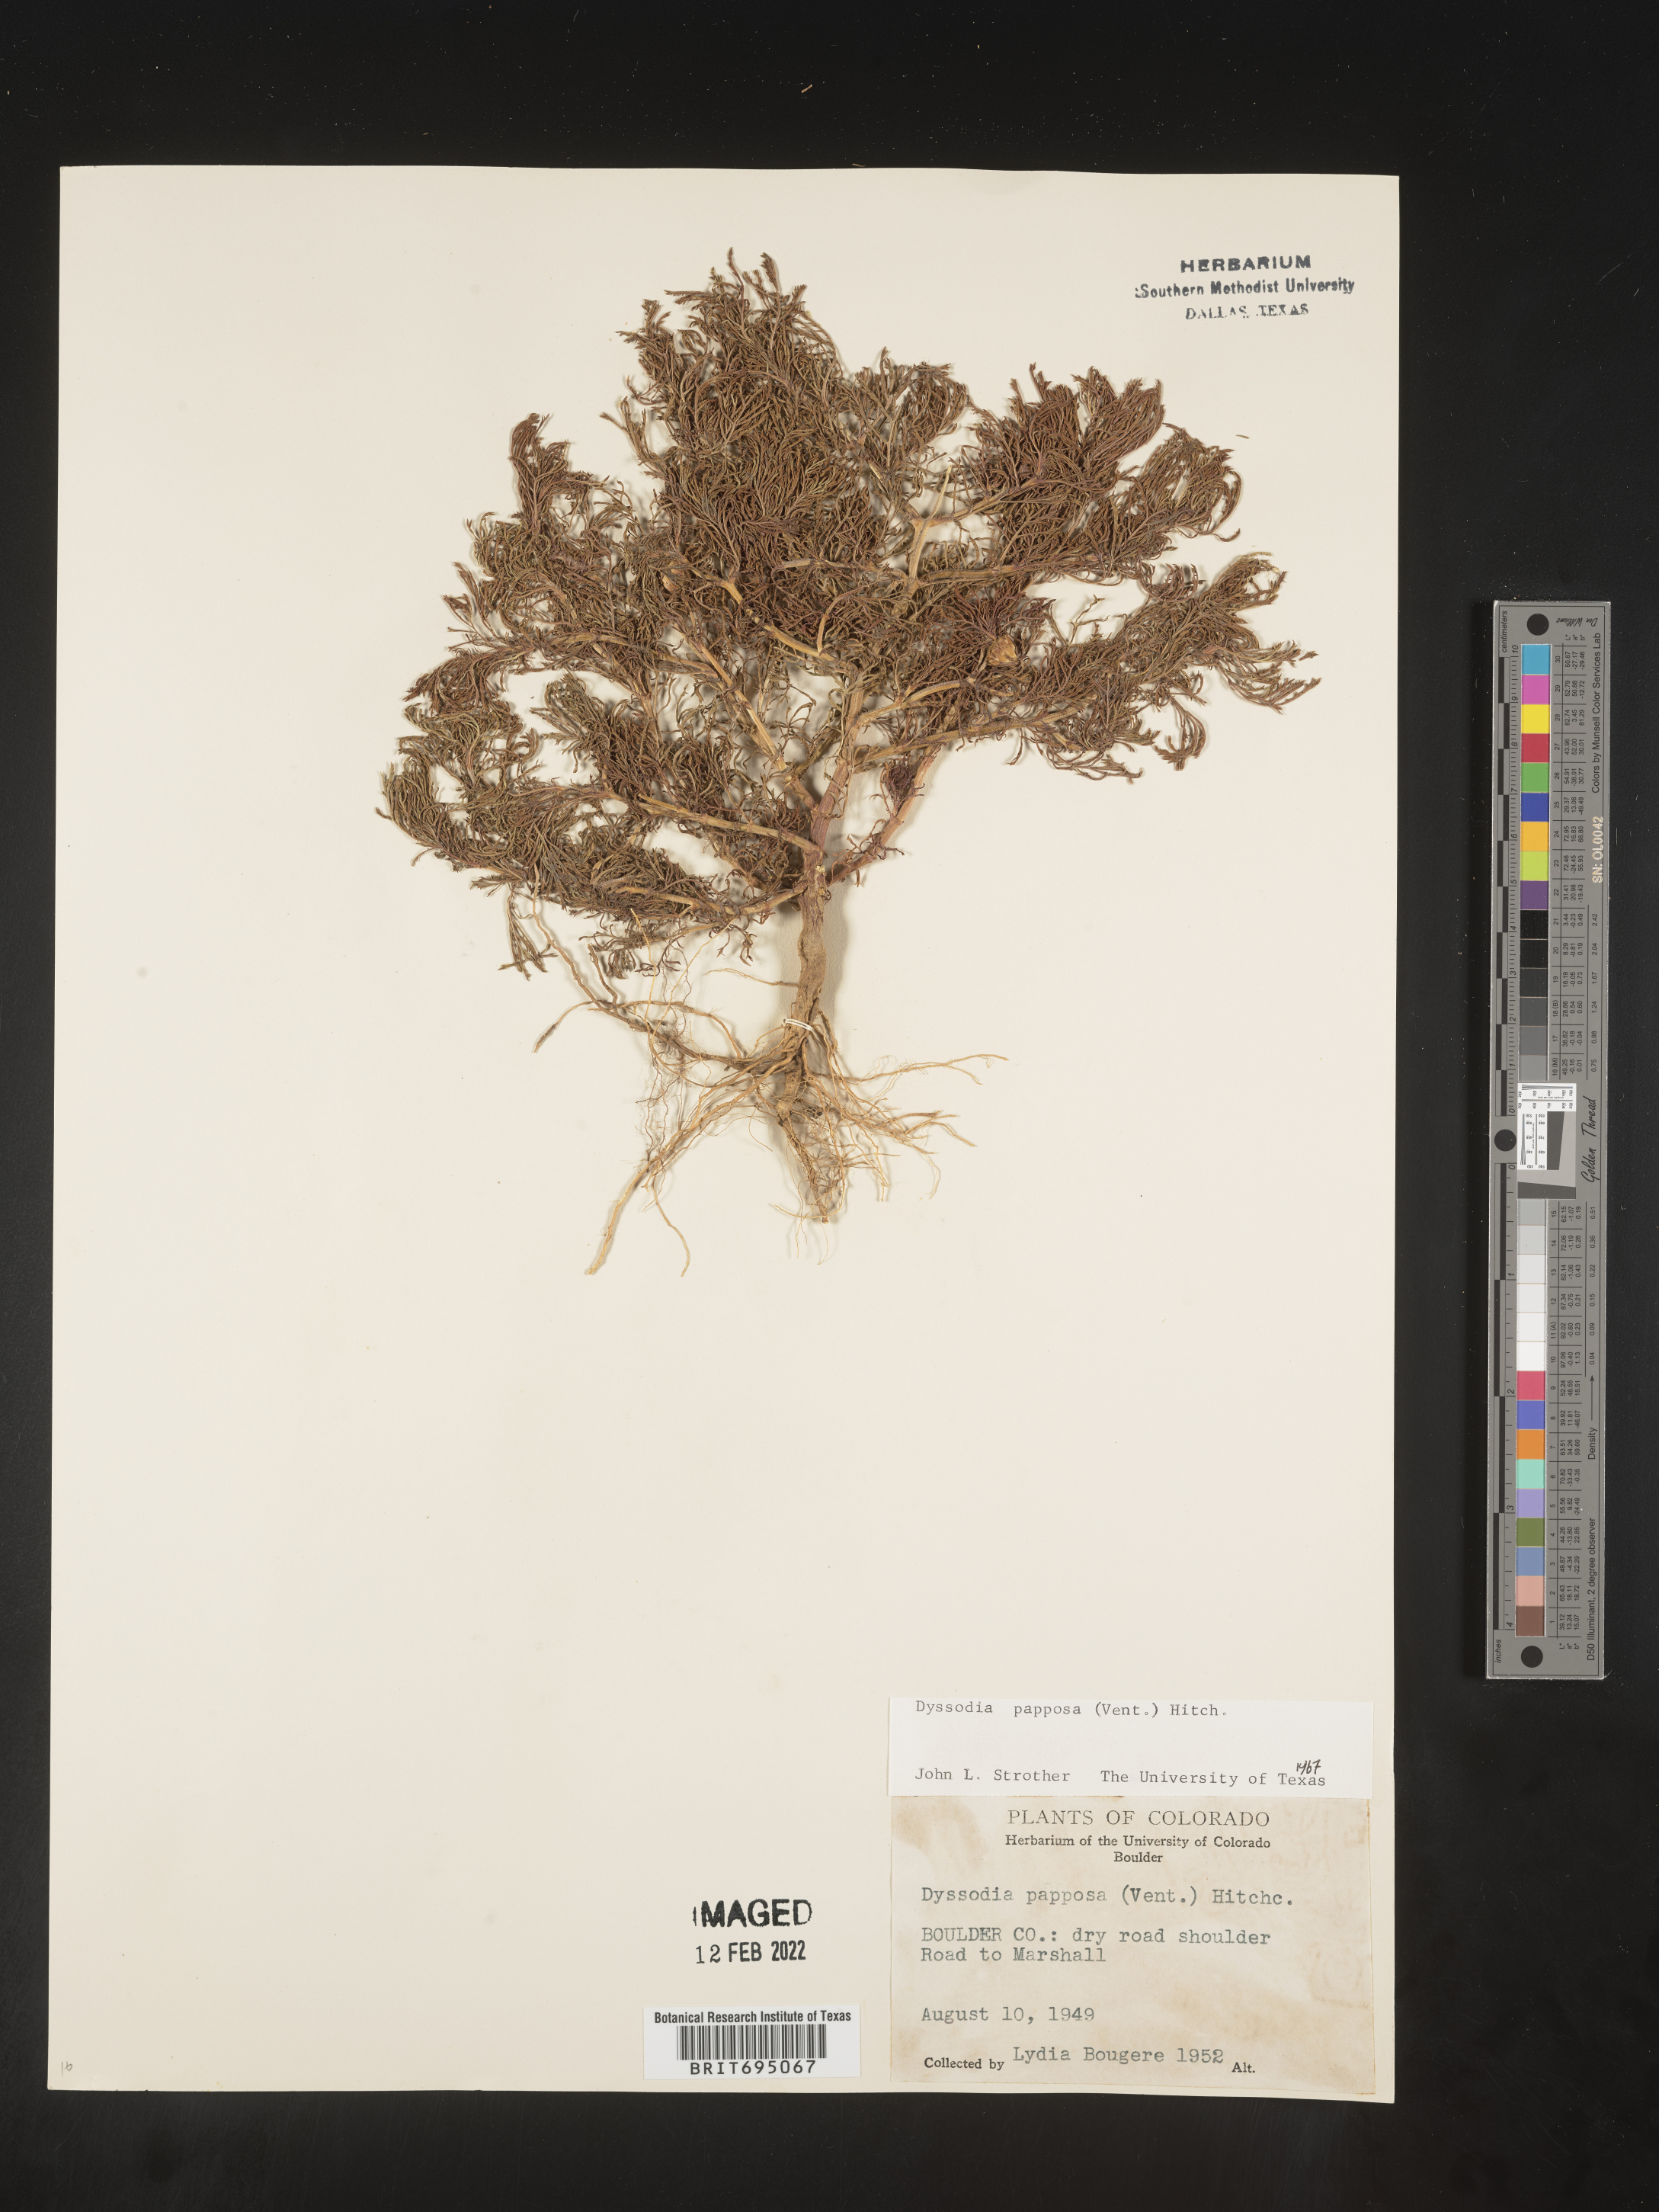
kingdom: Plantae
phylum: Tracheophyta
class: Magnoliopsida
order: Asterales
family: Asteraceae
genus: Dyssodia
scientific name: Dyssodia papposa
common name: Dogweed
